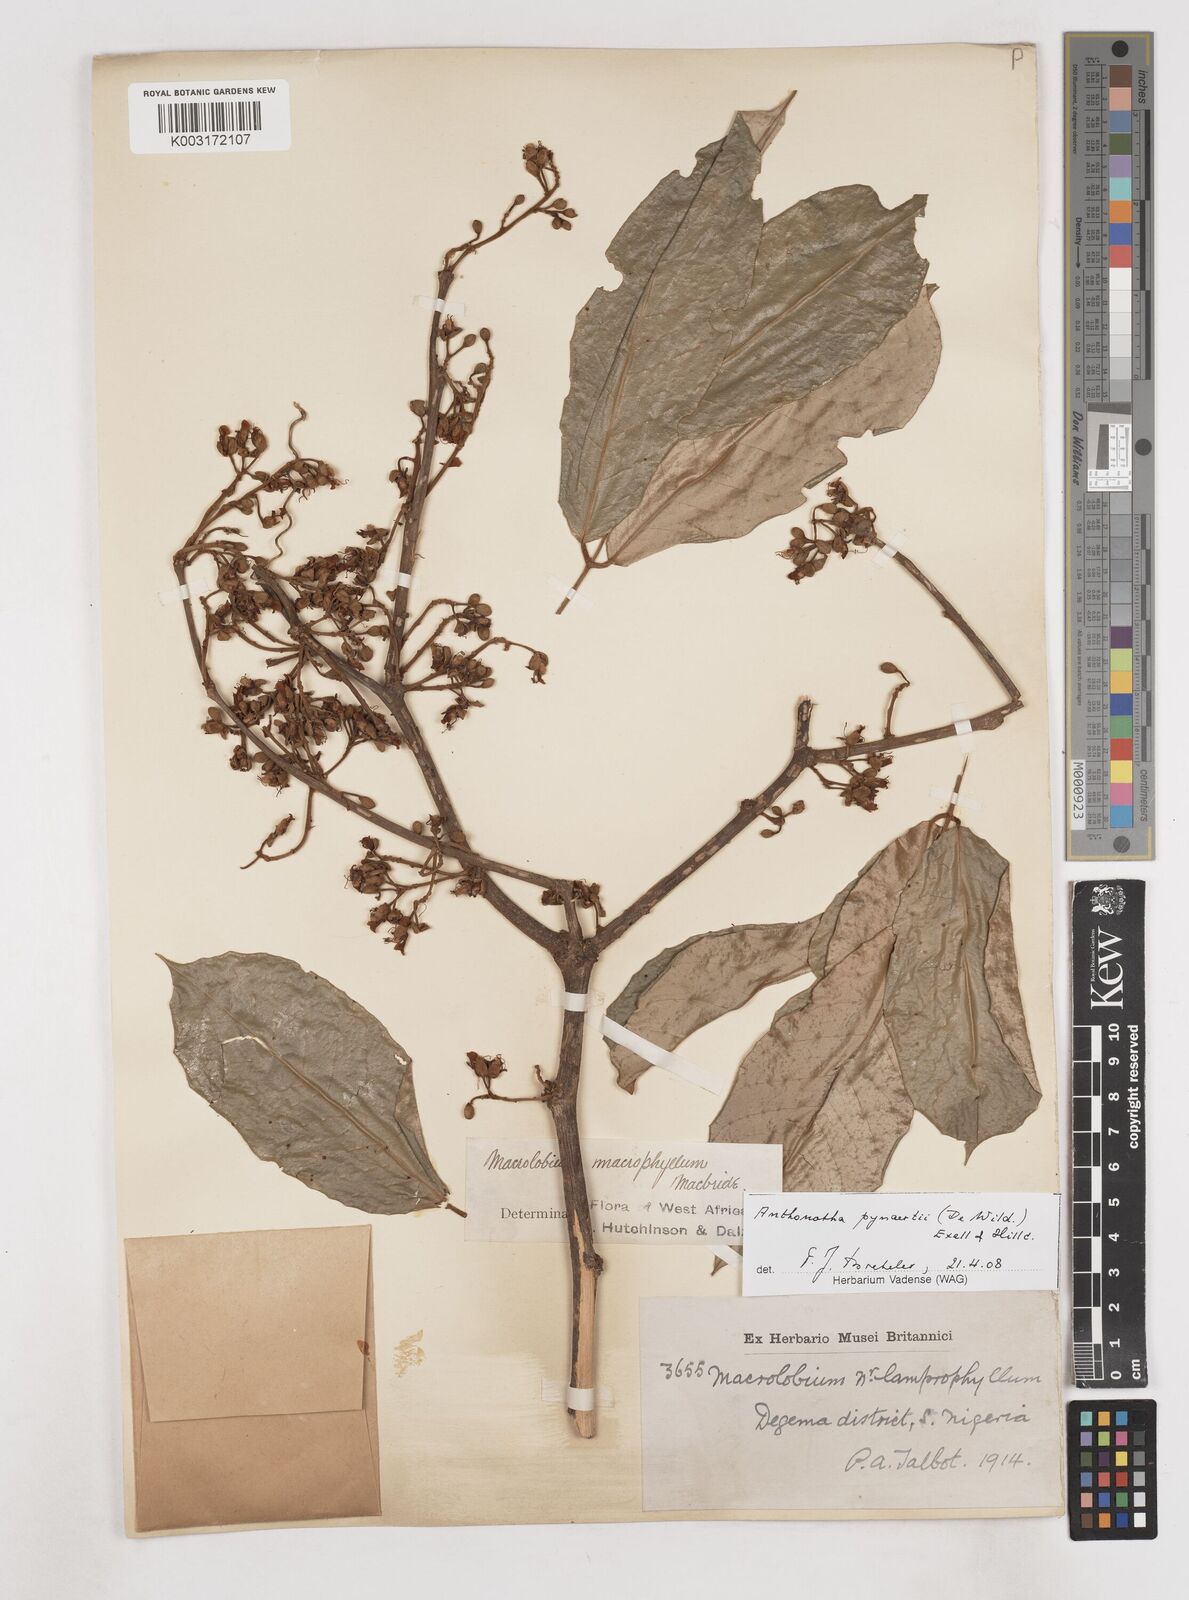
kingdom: Plantae
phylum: Tracheophyta
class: Magnoliopsida
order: Fabales
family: Fabaceae
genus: Anthonotha
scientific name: Anthonotha pynaertii
